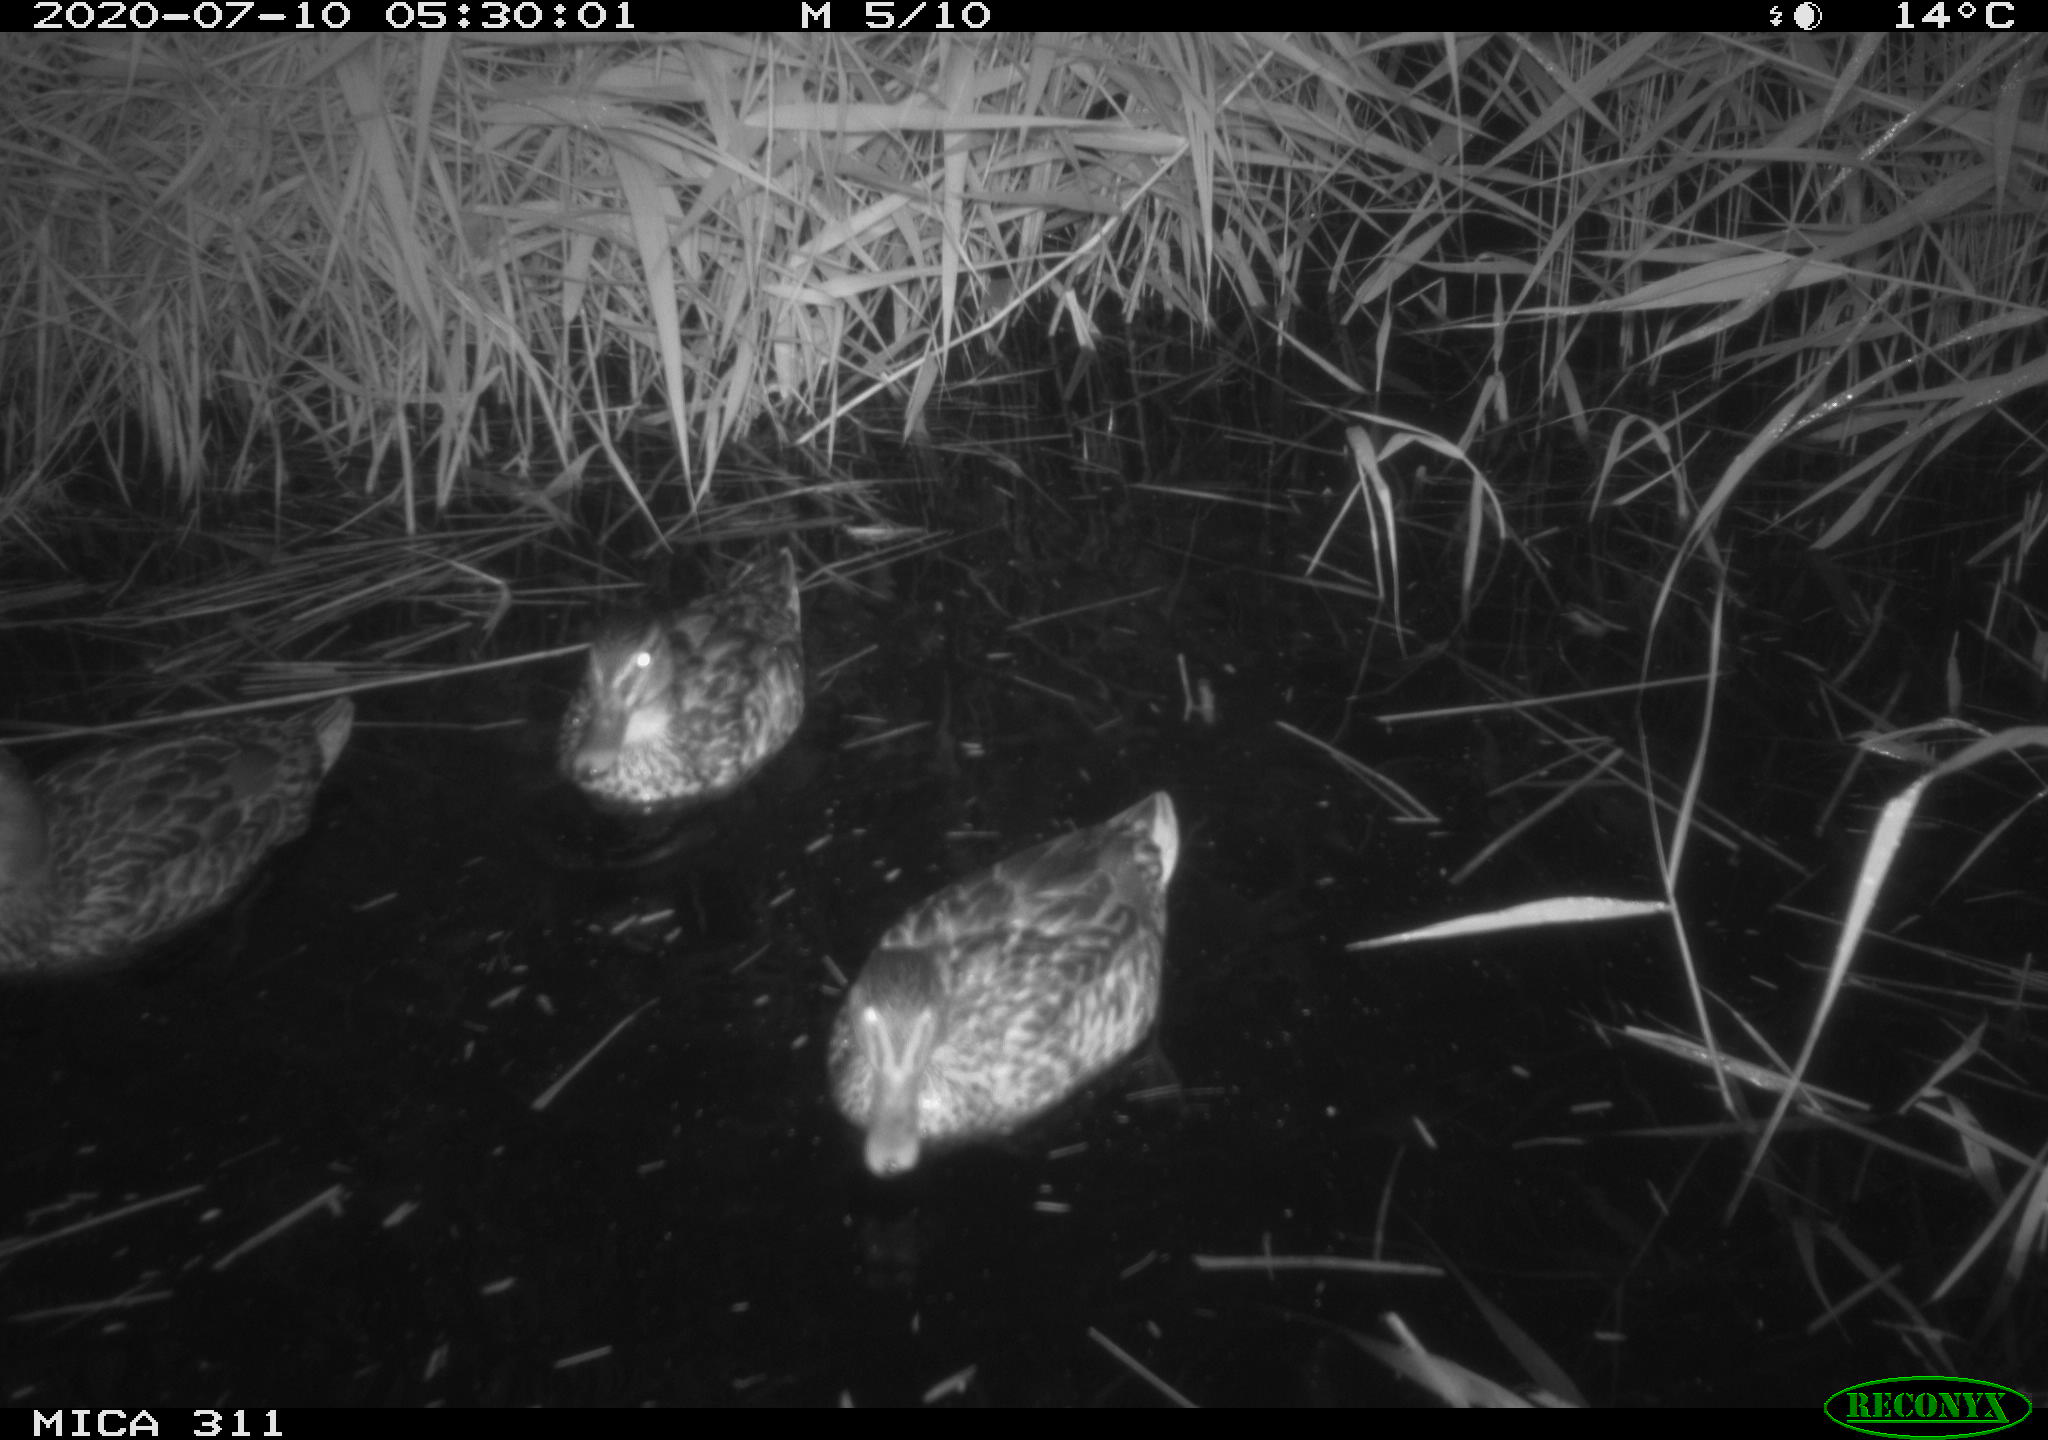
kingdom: Animalia
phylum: Chordata
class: Aves
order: Anseriformes
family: Anatidae
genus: Anas
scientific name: Anas platyrhynchos
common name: Mallard
